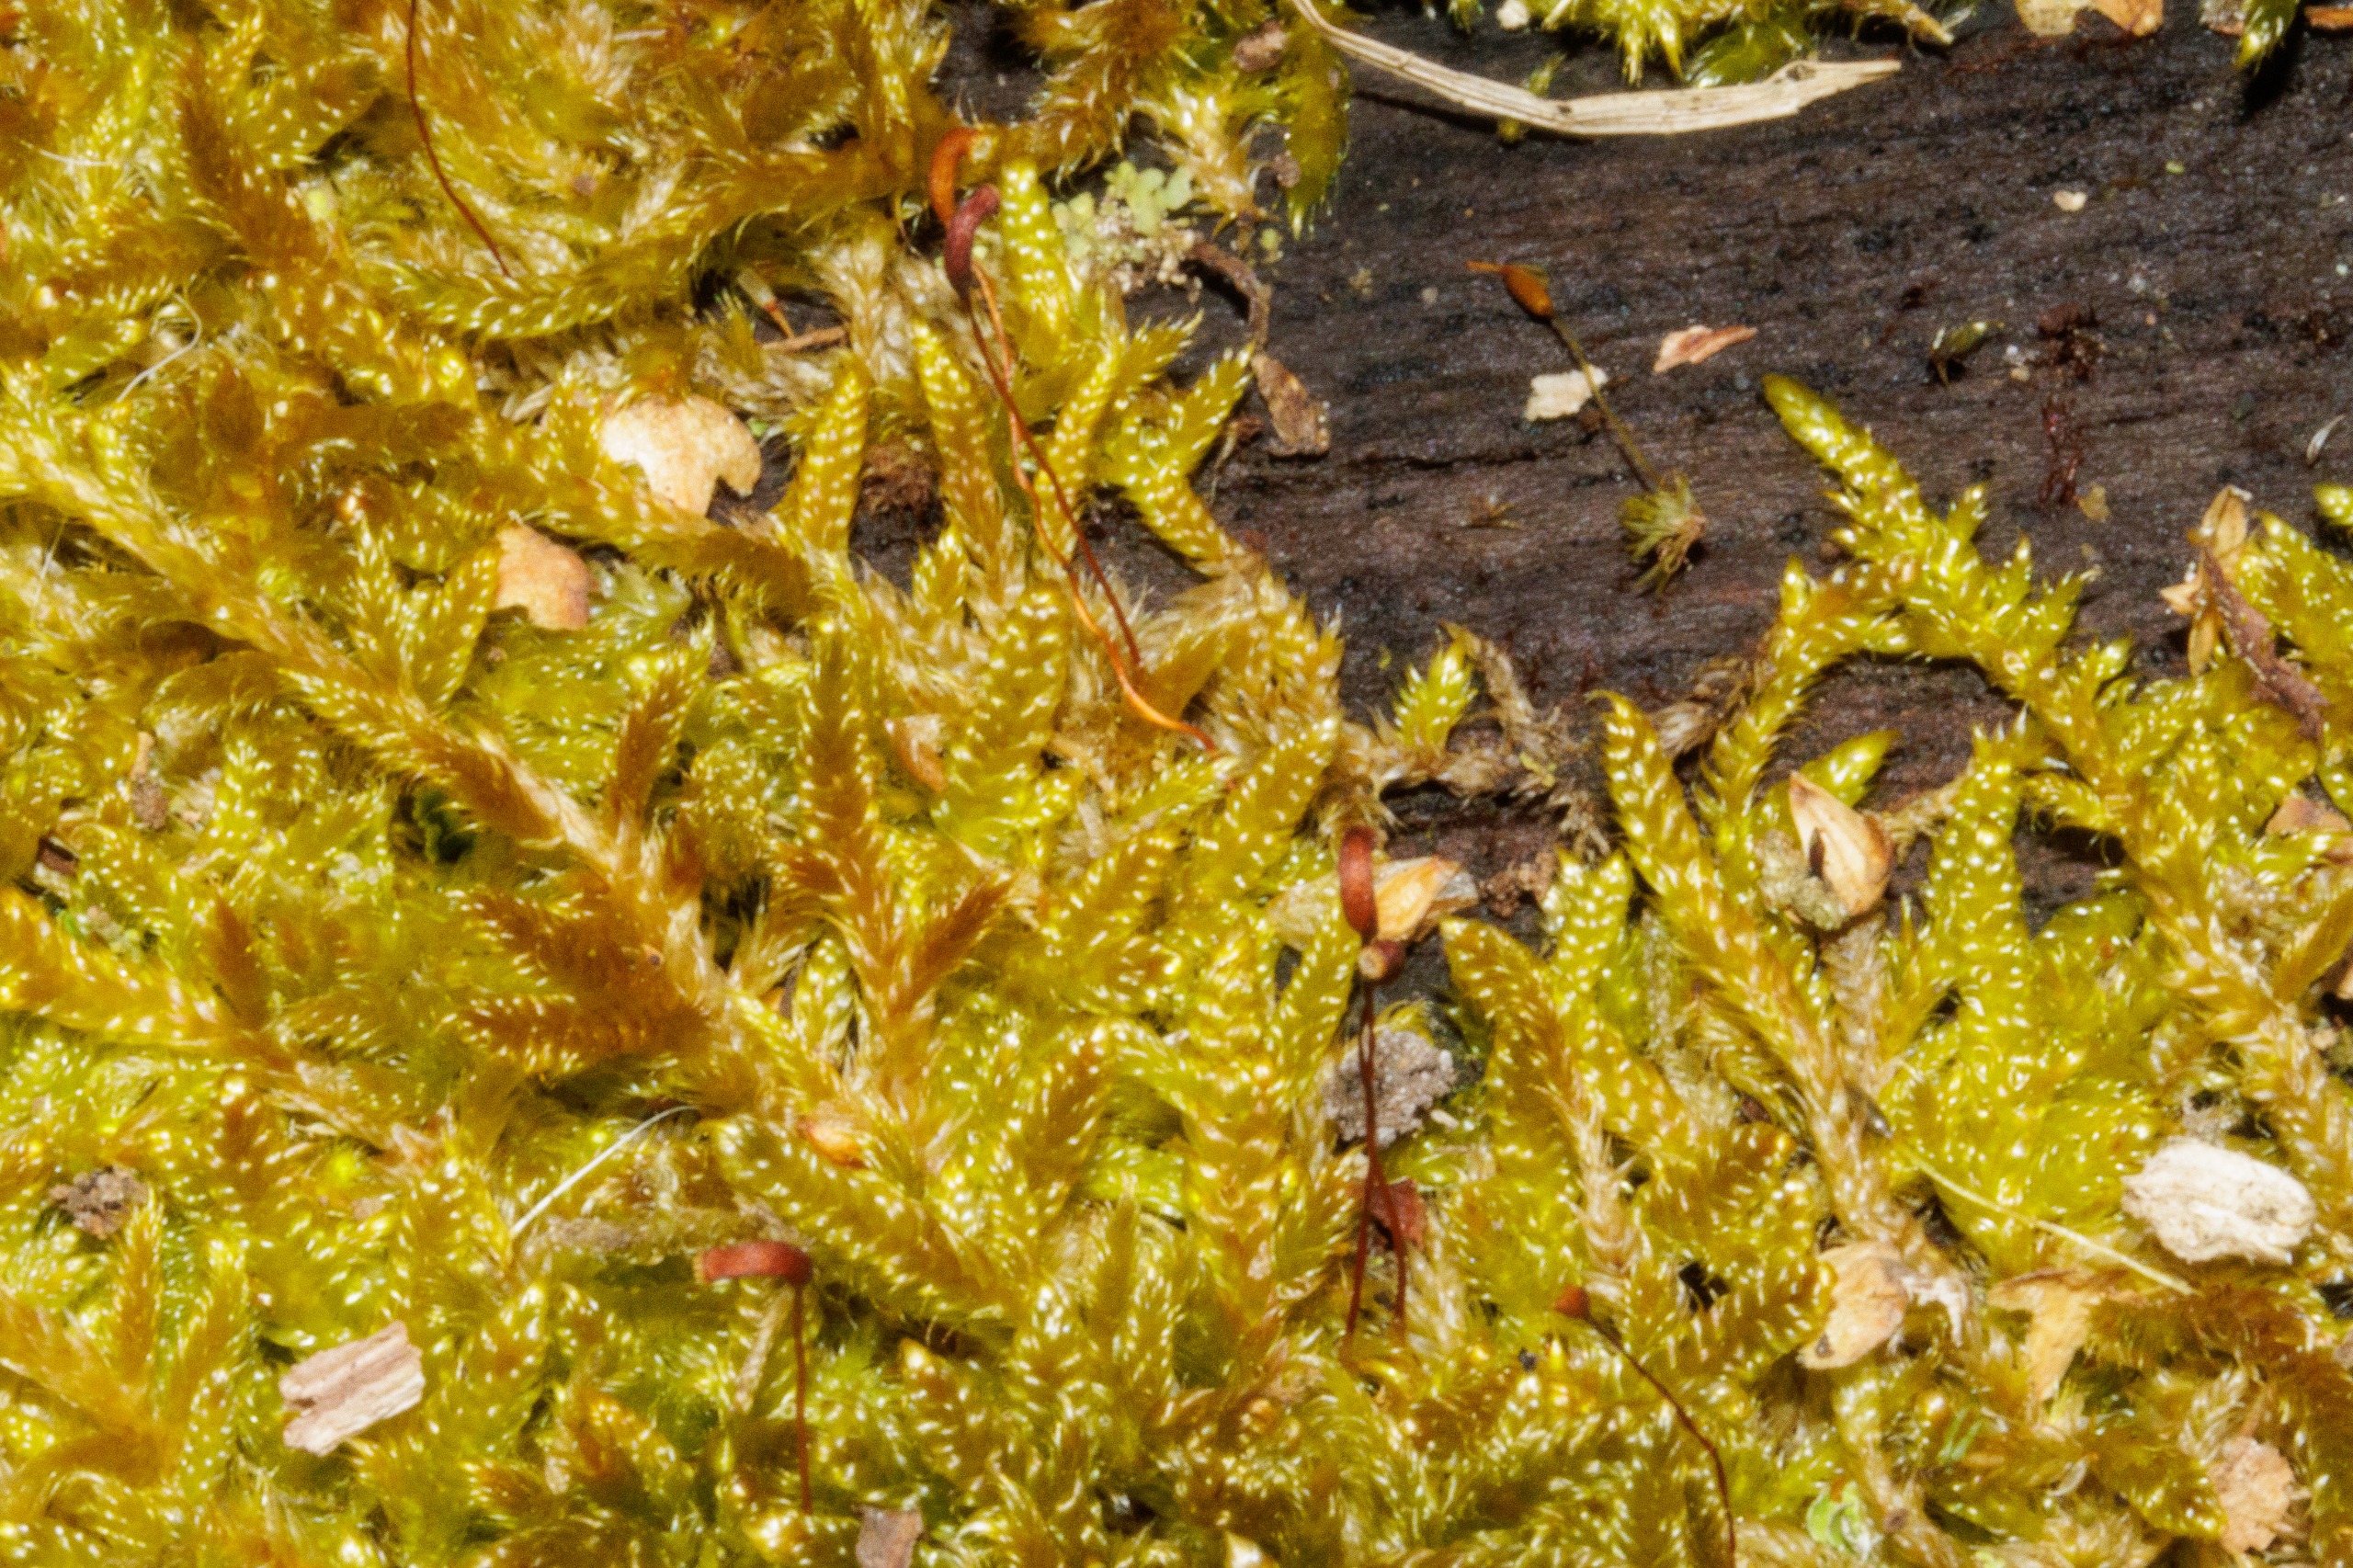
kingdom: Plantae
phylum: Bryophyta
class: Bryopsida
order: Hypnales
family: Hypnaceae
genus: Hypnum
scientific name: Hypnum cupressiforme
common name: Almindelig cypresmos
